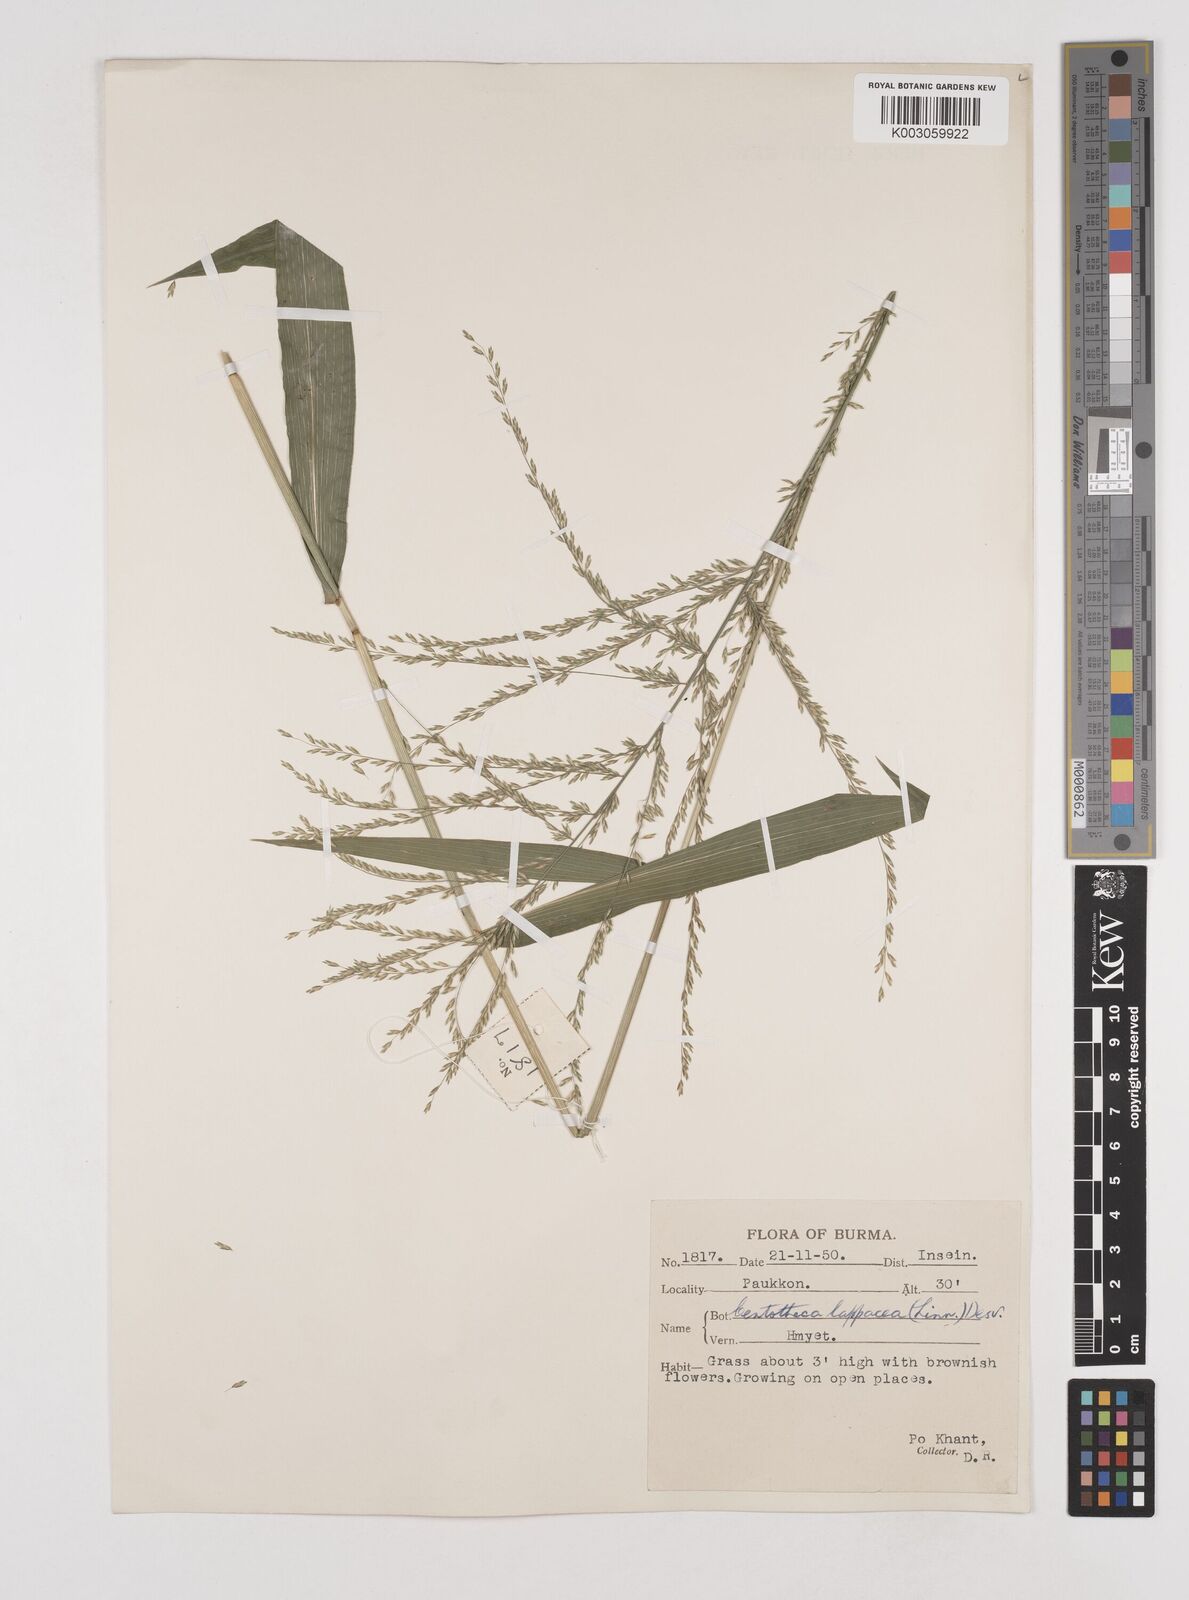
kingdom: Plantae
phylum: Tracheophyta
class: Liliopsida
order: Poales
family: Poaceae
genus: Centotheca
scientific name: Centotheca lappacea
